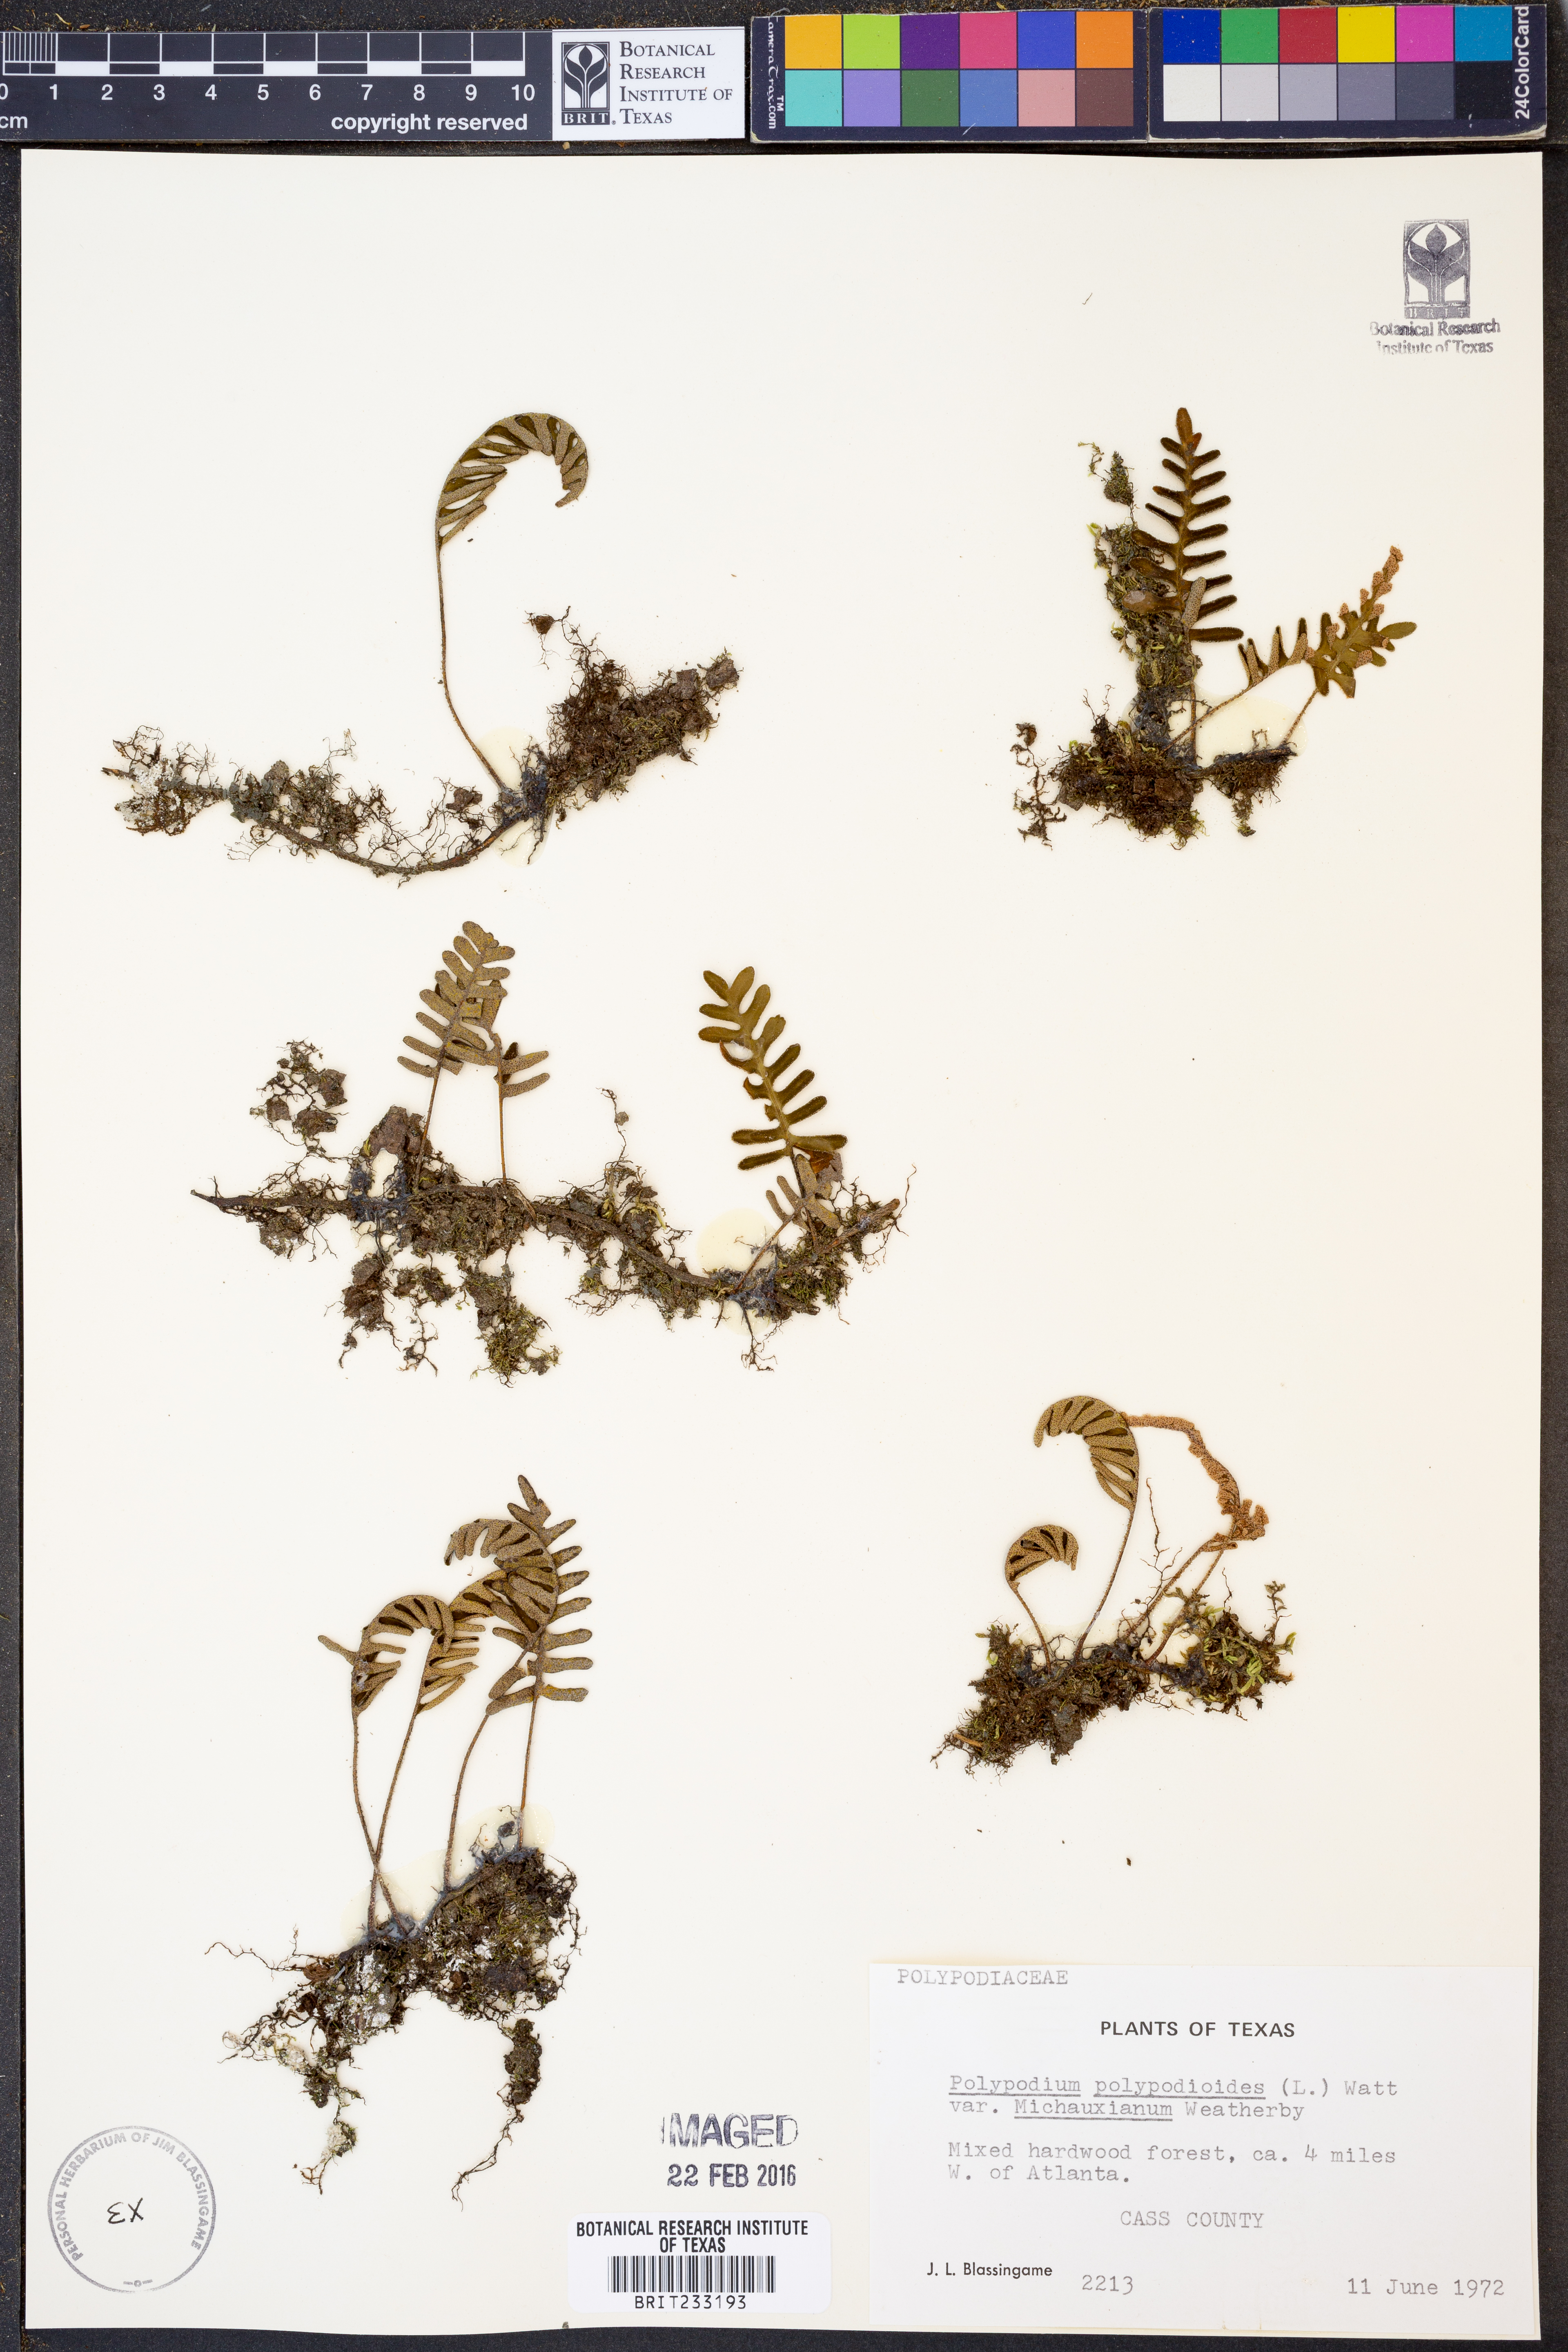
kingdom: Plantae
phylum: Tracheophyta
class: Polypodiopsida
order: Polypodiales
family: Polypodiaceae
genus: Pleopeltis
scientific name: Pleopeltis michauxiana
